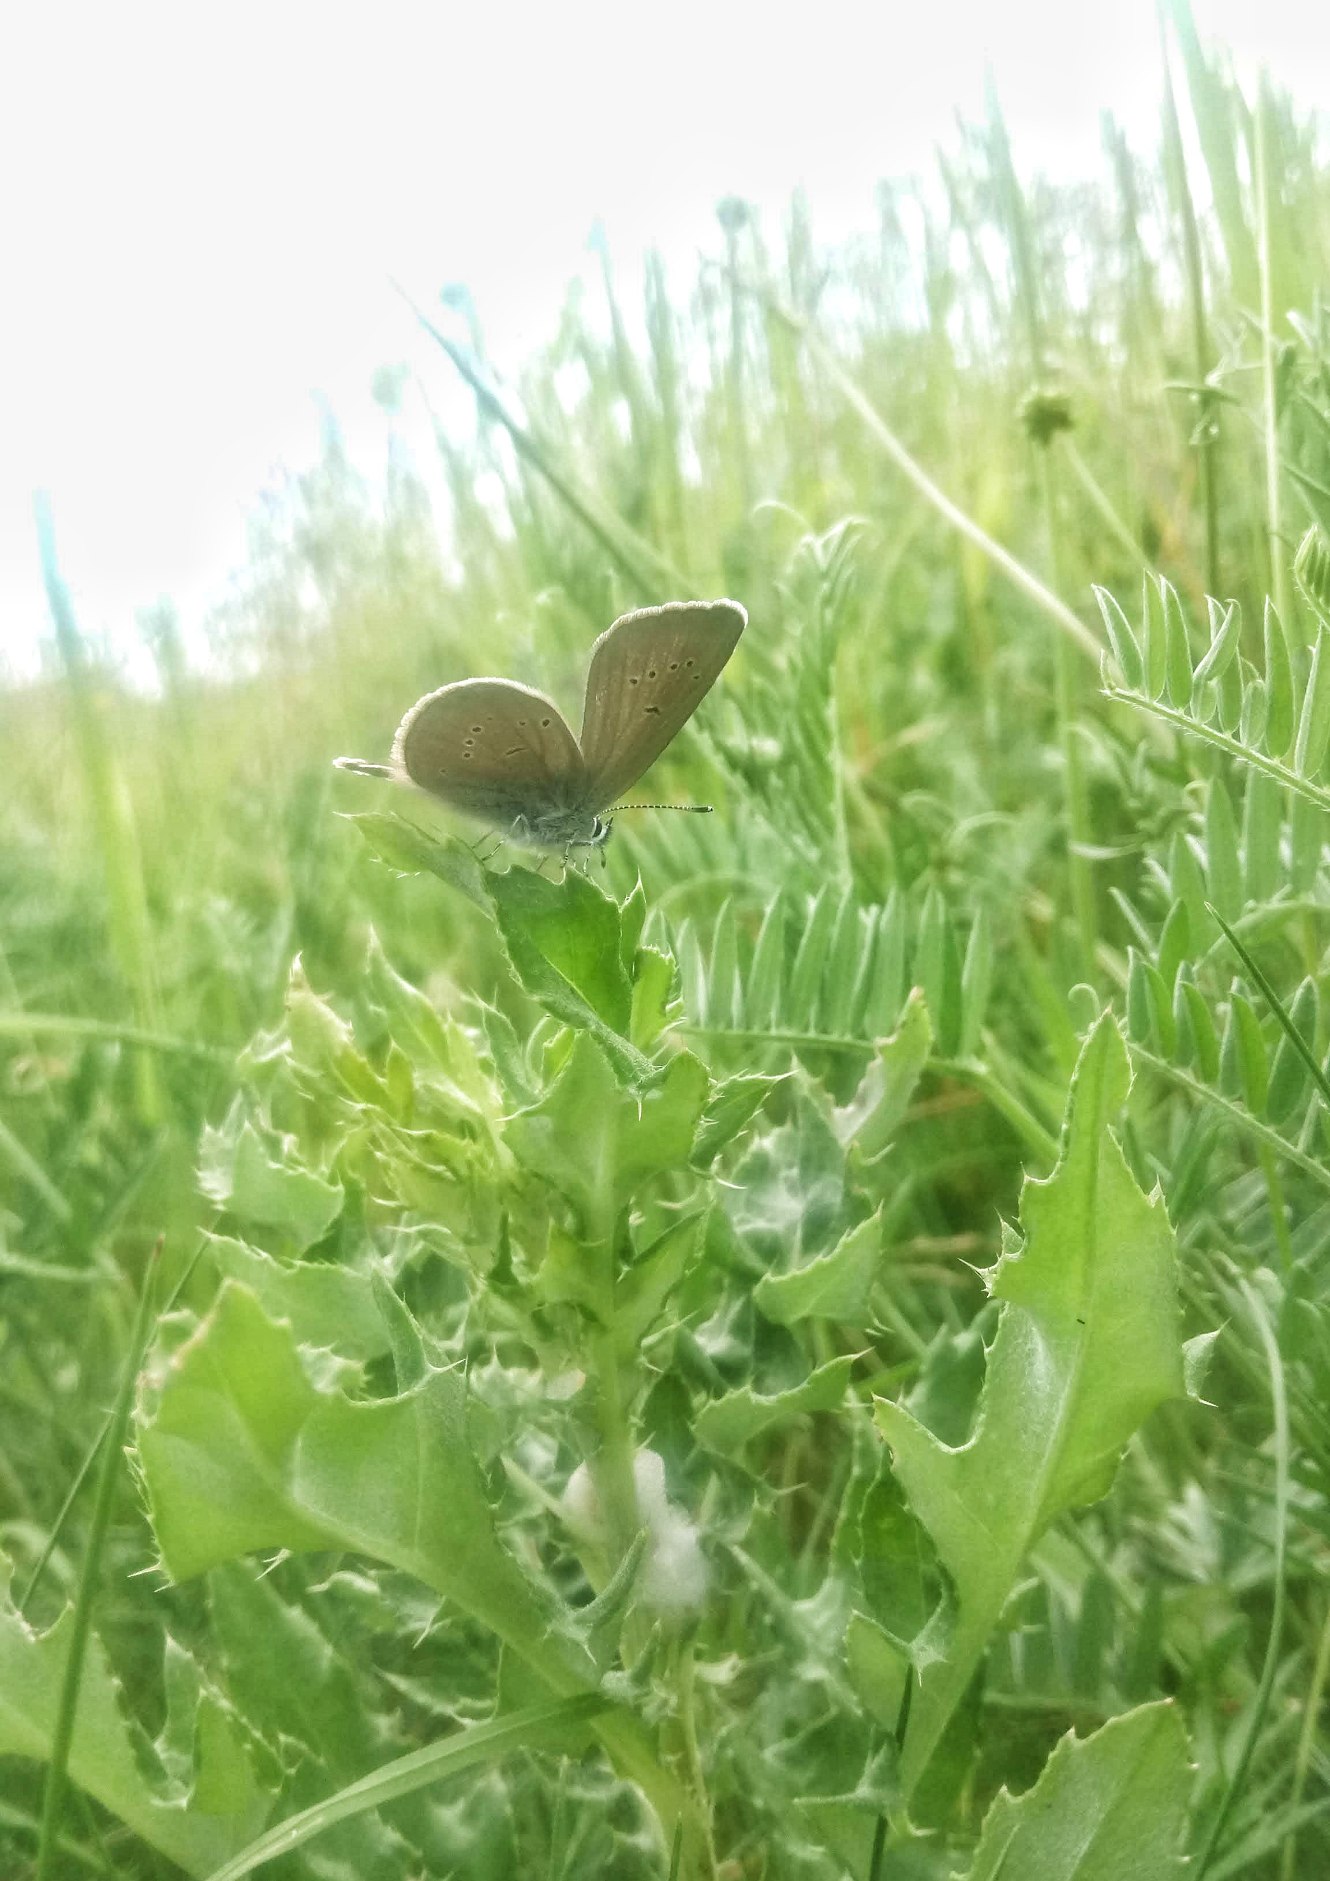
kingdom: Animalia
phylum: Arthropoda
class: Insecta
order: Lepidoptera
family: Lycaenidae
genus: Cyaniris
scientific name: Cyaniris semiargus
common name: Engblåfugl
